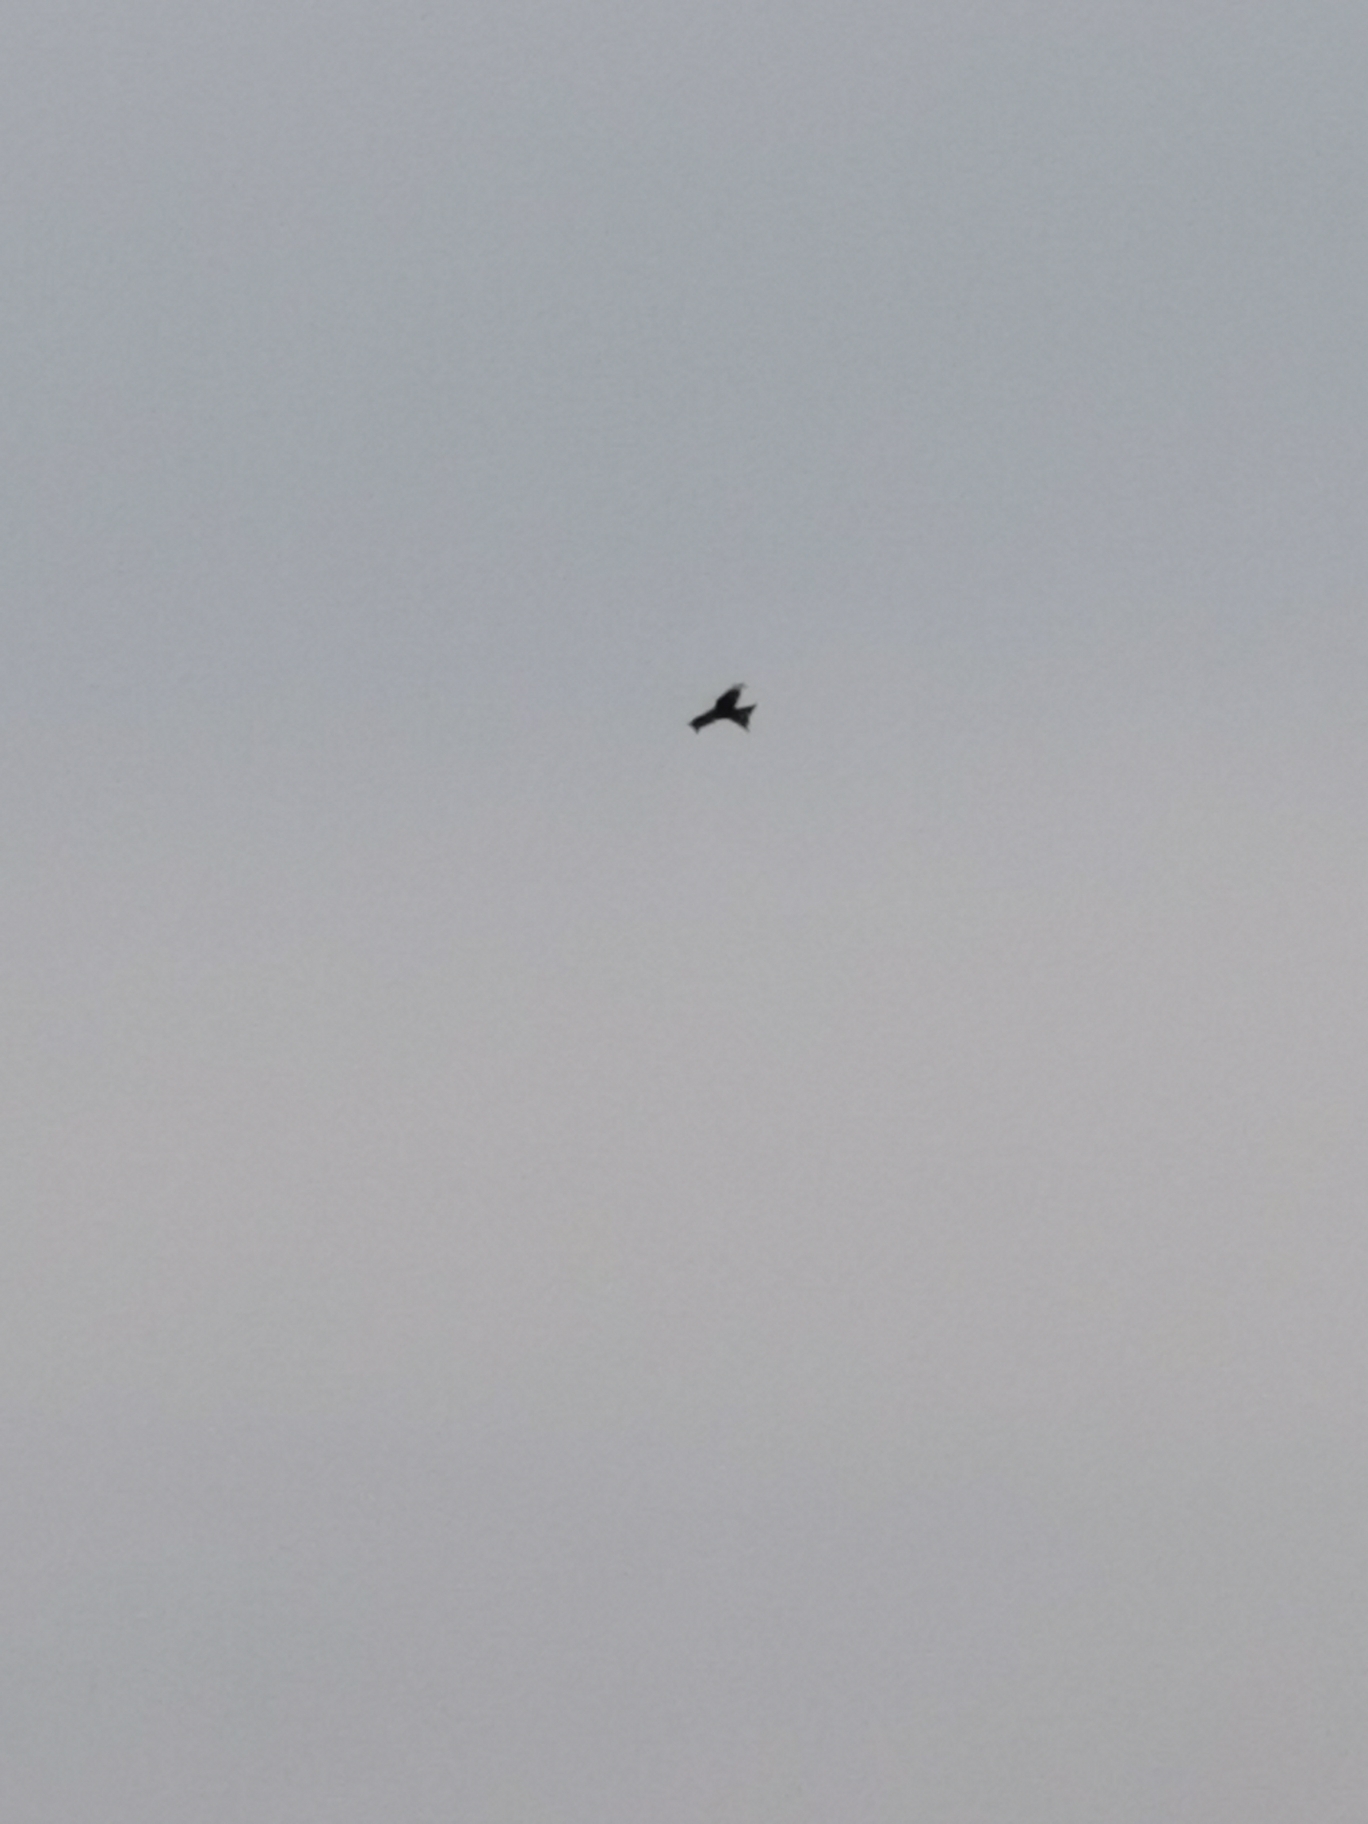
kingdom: Animalia
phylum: Chordata
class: Aves
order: Accipitriformes
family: Accipitridae
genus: Milvus
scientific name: Milvus milvus
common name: Rød glente
